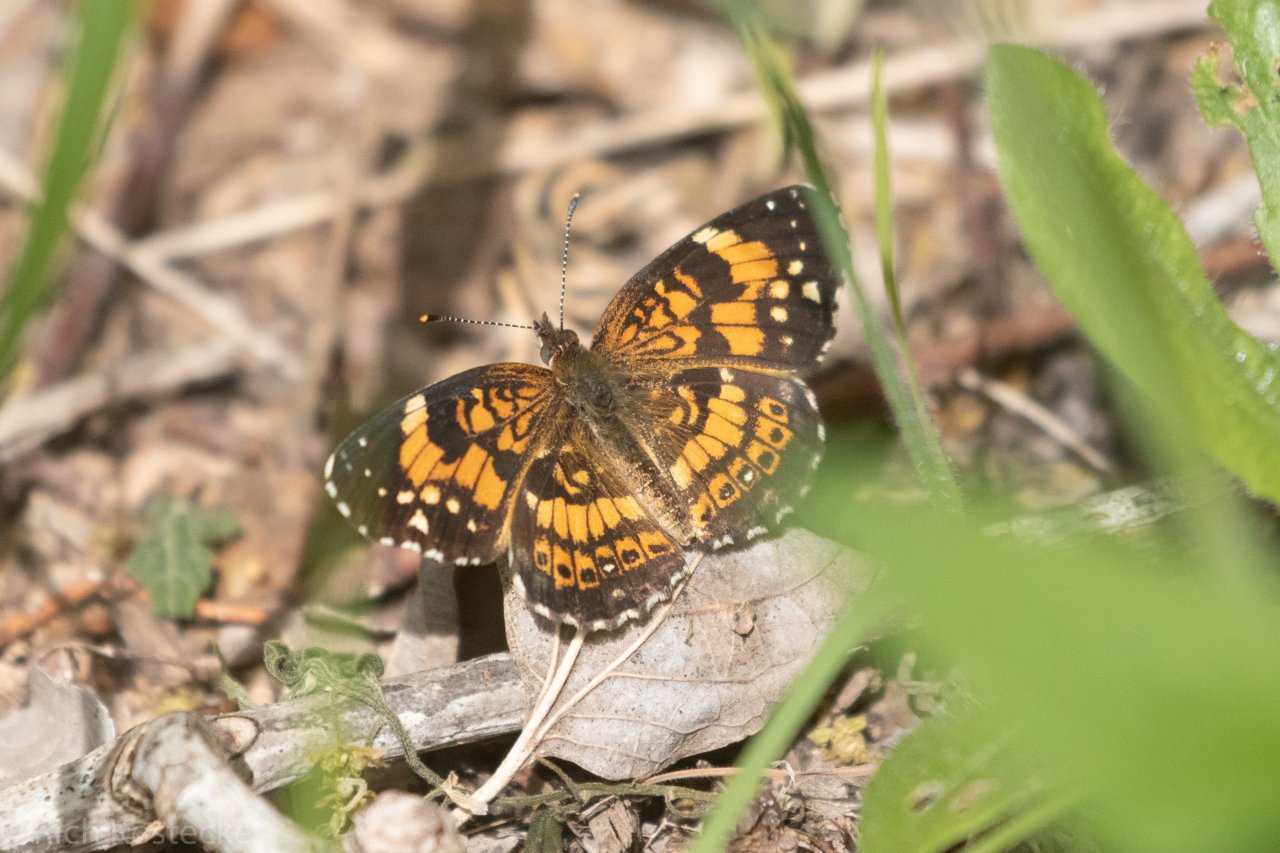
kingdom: Animalia
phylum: Arthropoda
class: Insecta
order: Lepidoptera
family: Nymphalidae
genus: Chlosyne
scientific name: Chlosyne nycteis
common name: Silvery Checkerspot
